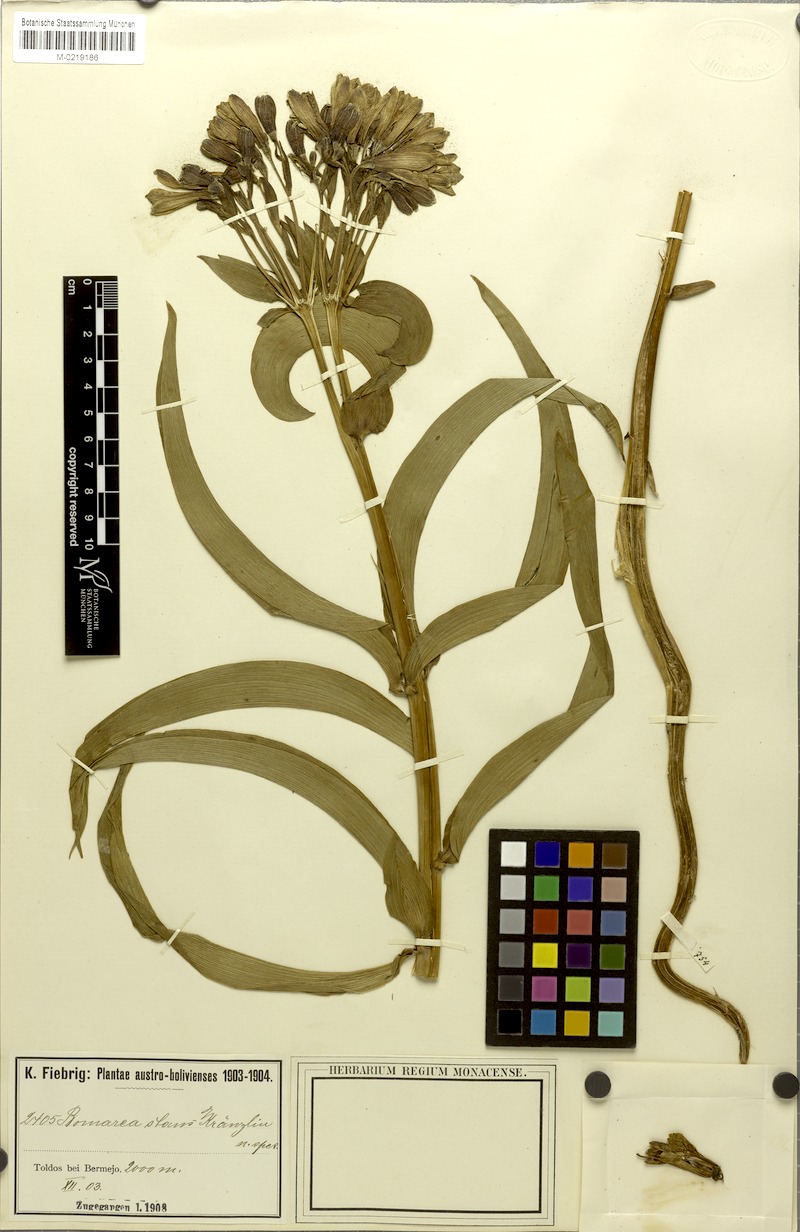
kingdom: Plantae
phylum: Tracheophyta
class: Liliopsida
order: Liliales
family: Alstroemeriaceae
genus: Bomarea
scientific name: Bomarea stans
